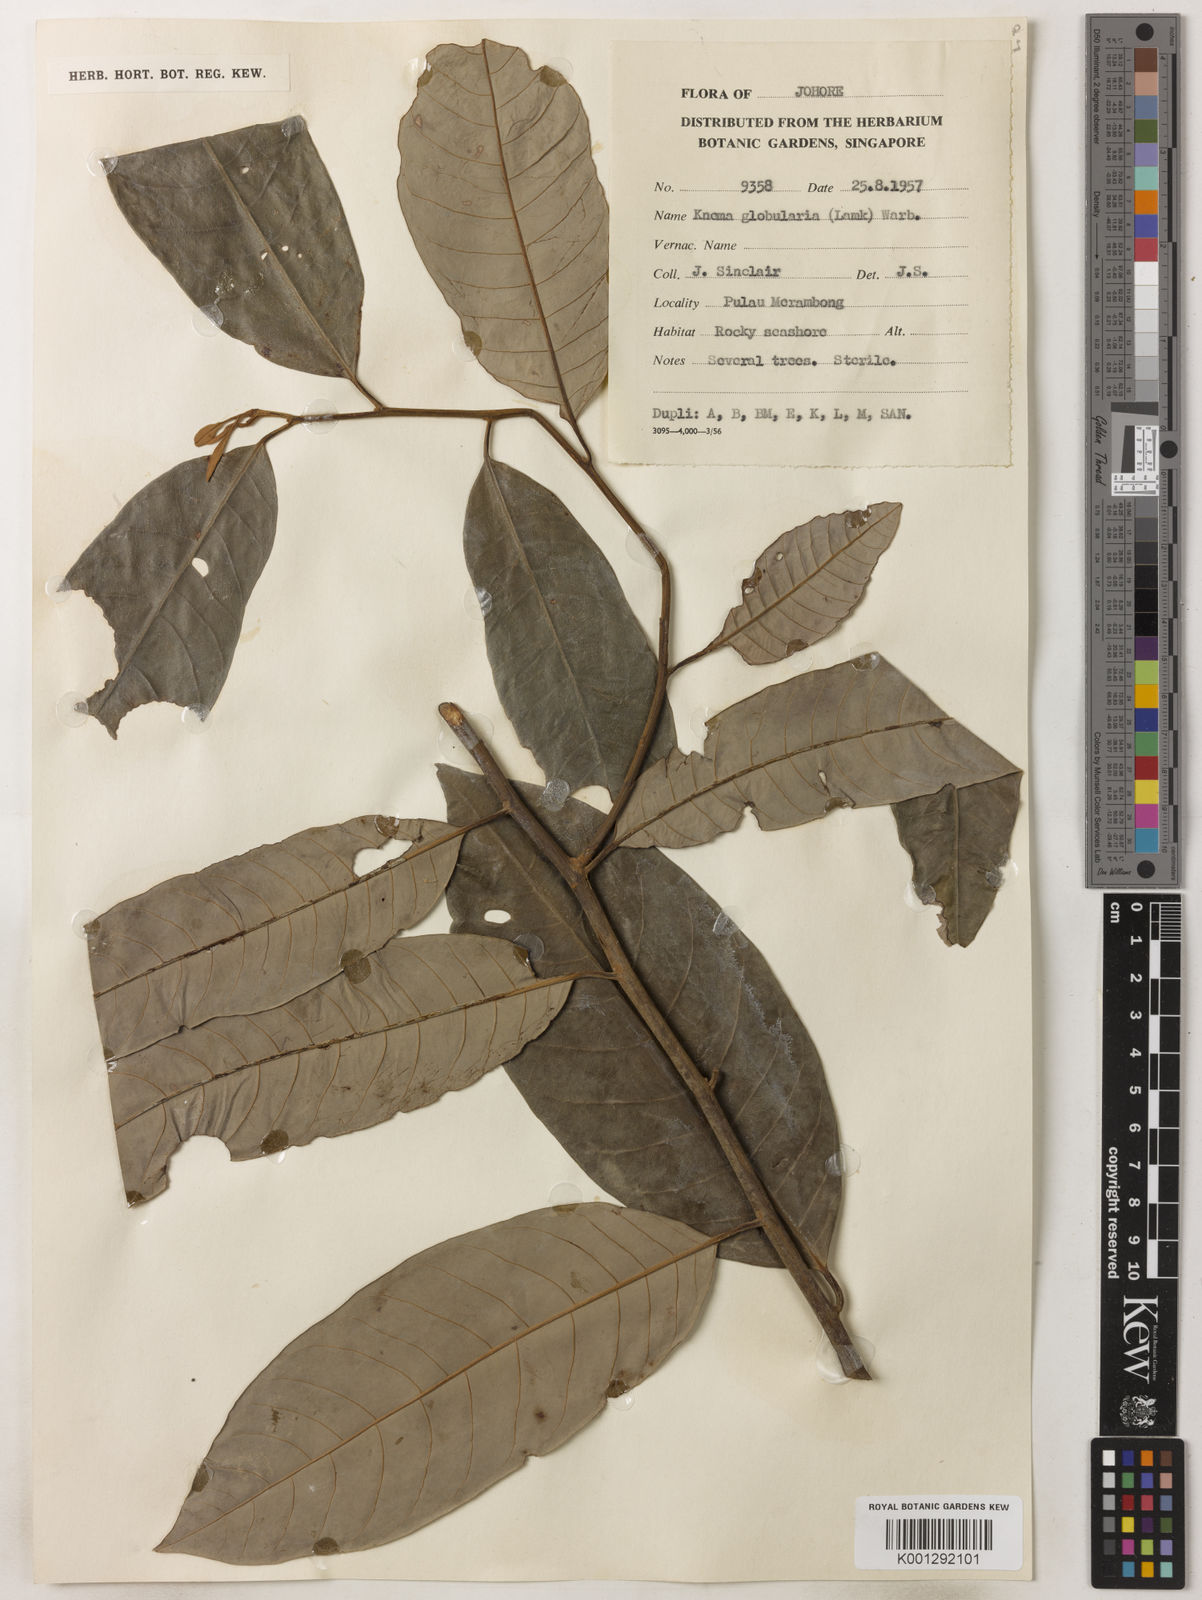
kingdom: Plantae
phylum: Tracheophyta
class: Magnoliopsida
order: Magnoliales
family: Myristicaceae
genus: Knema
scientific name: Knema globularia
